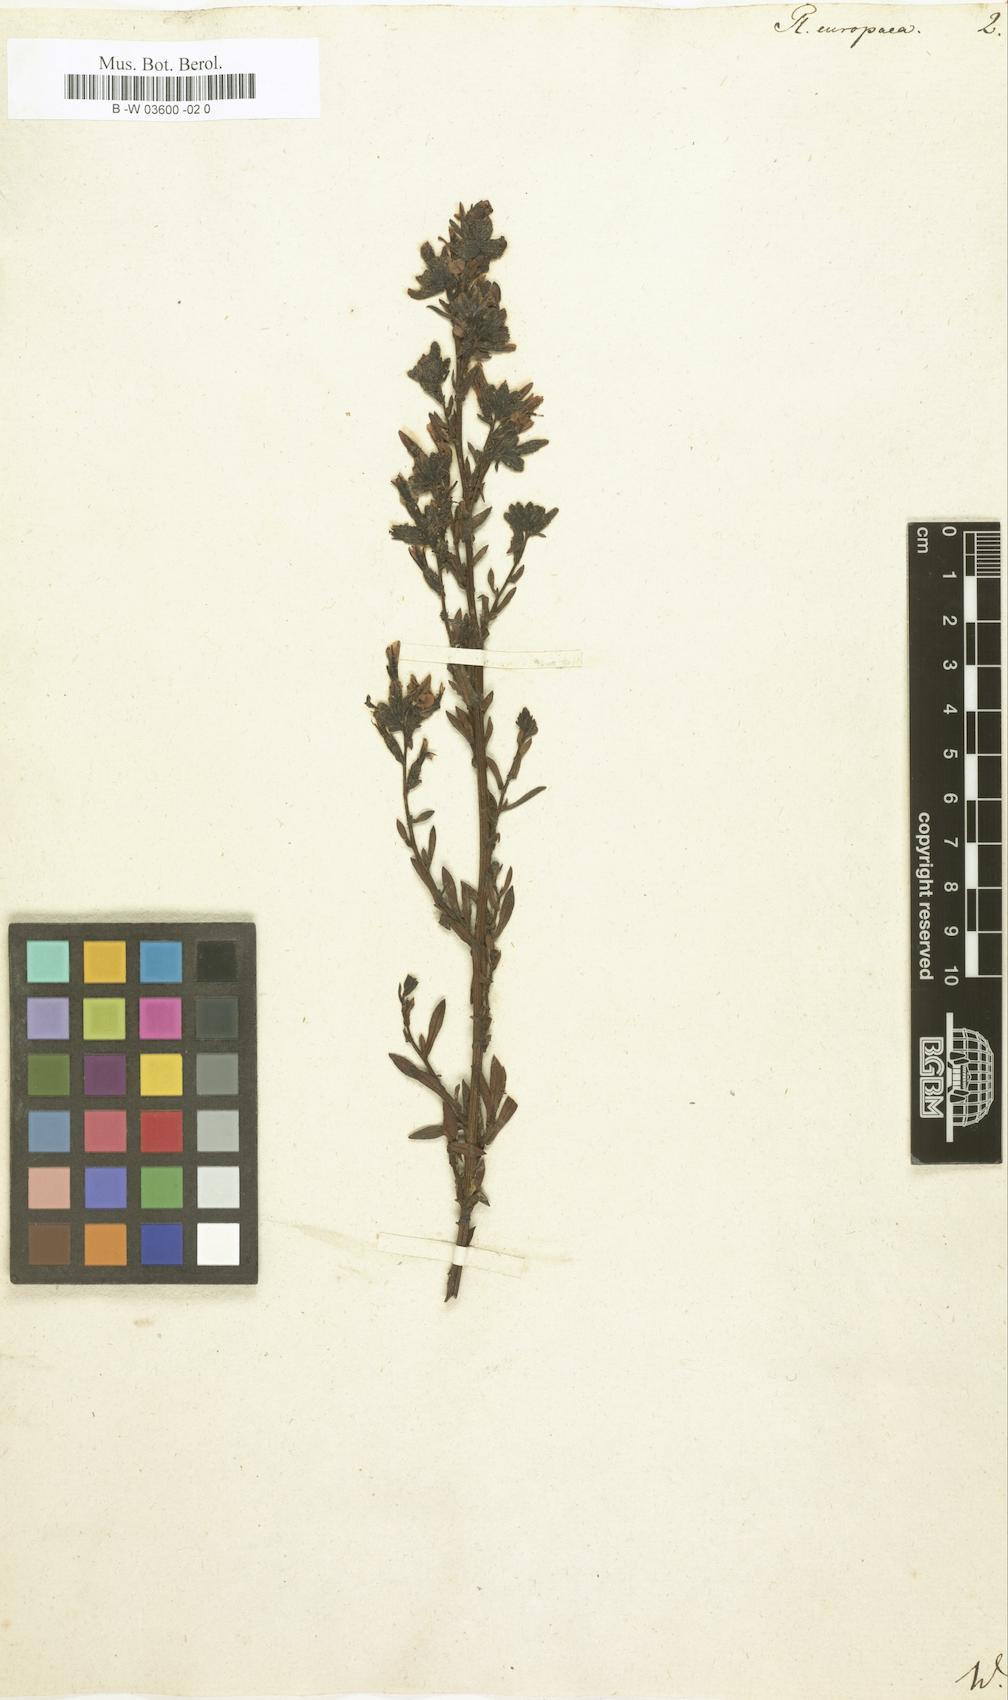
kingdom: Plantae
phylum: Tracheophyta
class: Magnoliopsida
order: Caryophyllales
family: Plumbaginaceae
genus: Plumbago
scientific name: Plumbago europaea
